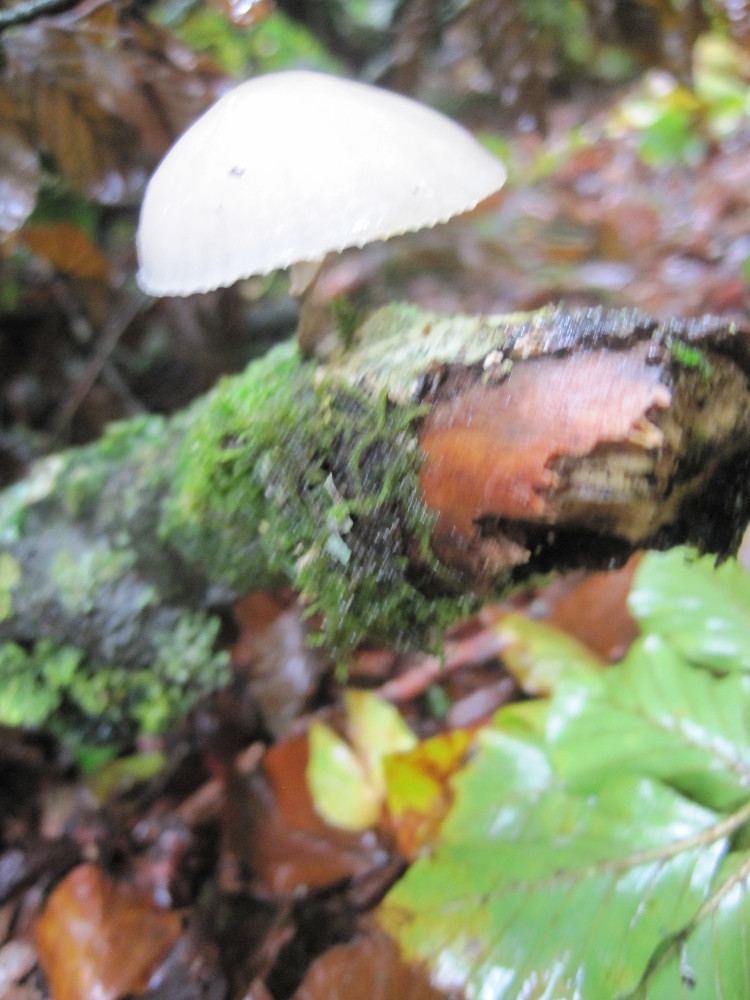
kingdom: Fungi
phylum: Basidiomycota
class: Agaricomycetes
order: Agaricales
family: Physalacriaceae
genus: Mucidula
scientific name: Mucidula mucida
